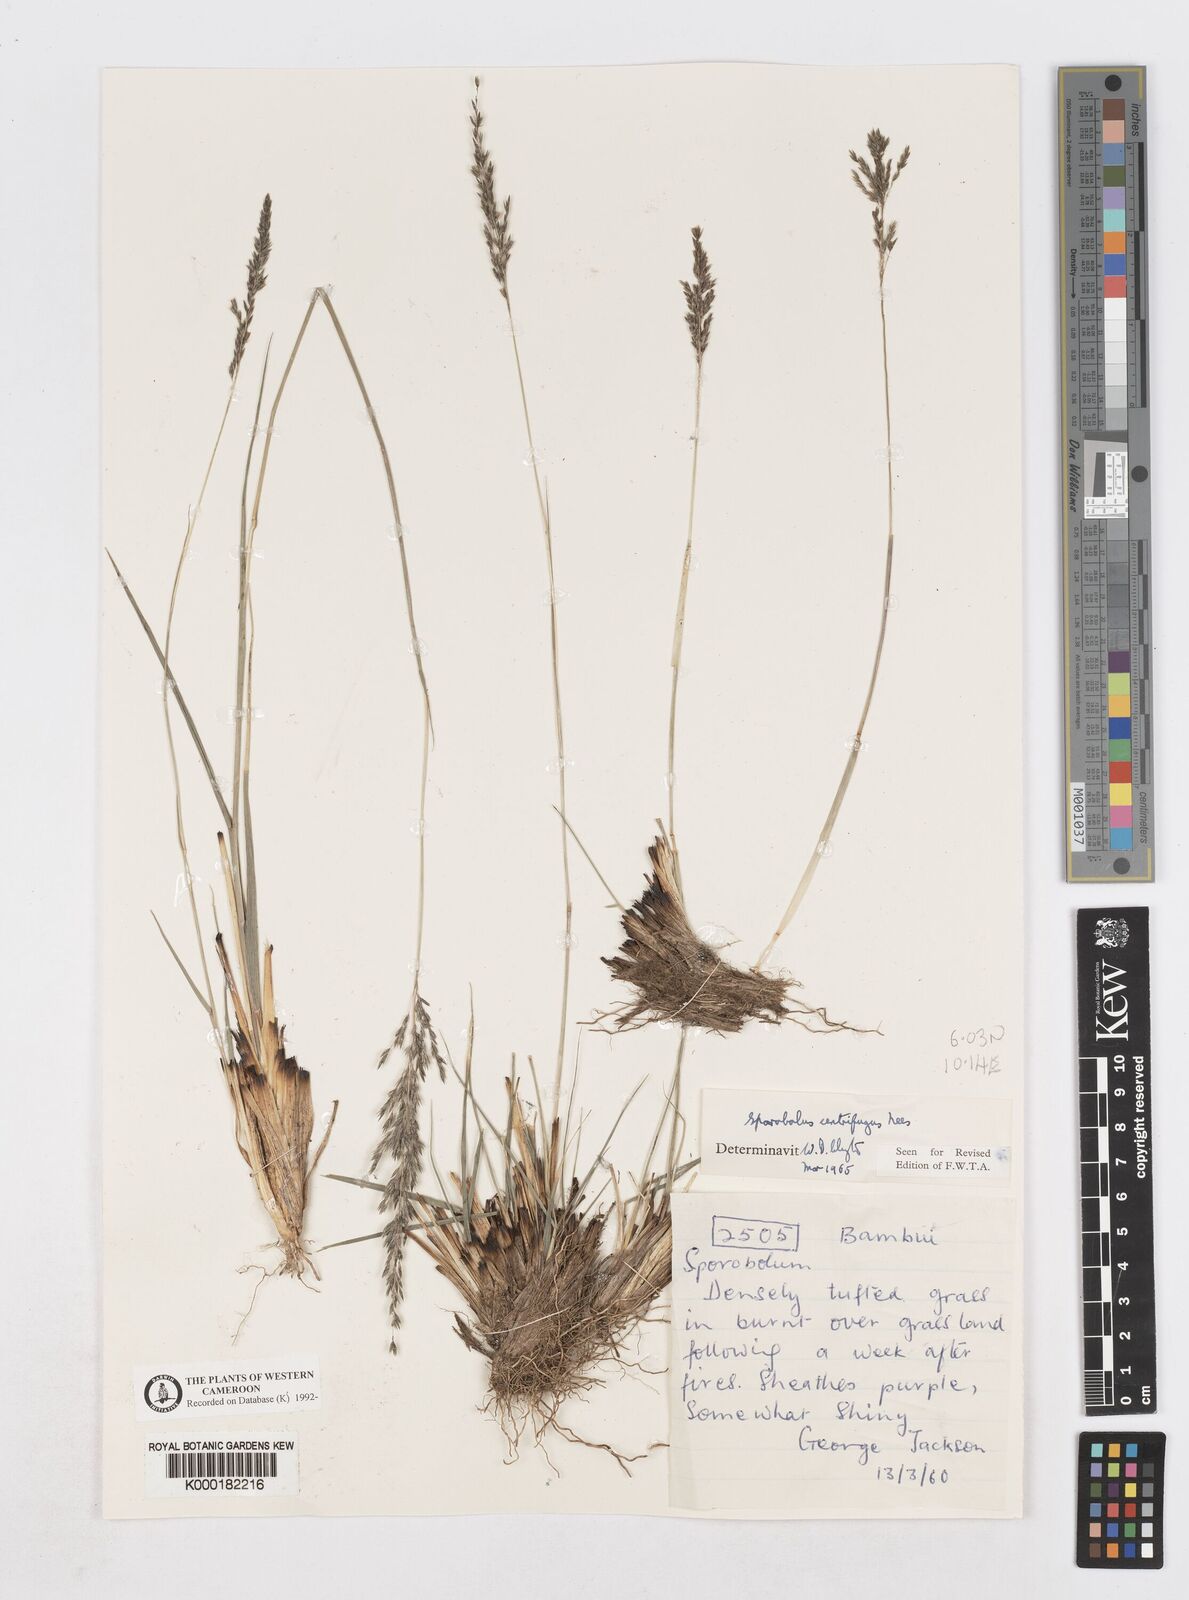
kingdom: Plantae
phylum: Tracheophyta
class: Liliopsida
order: Poales
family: Poaceae
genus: Sporobolus
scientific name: Sporobolus centrifugus
